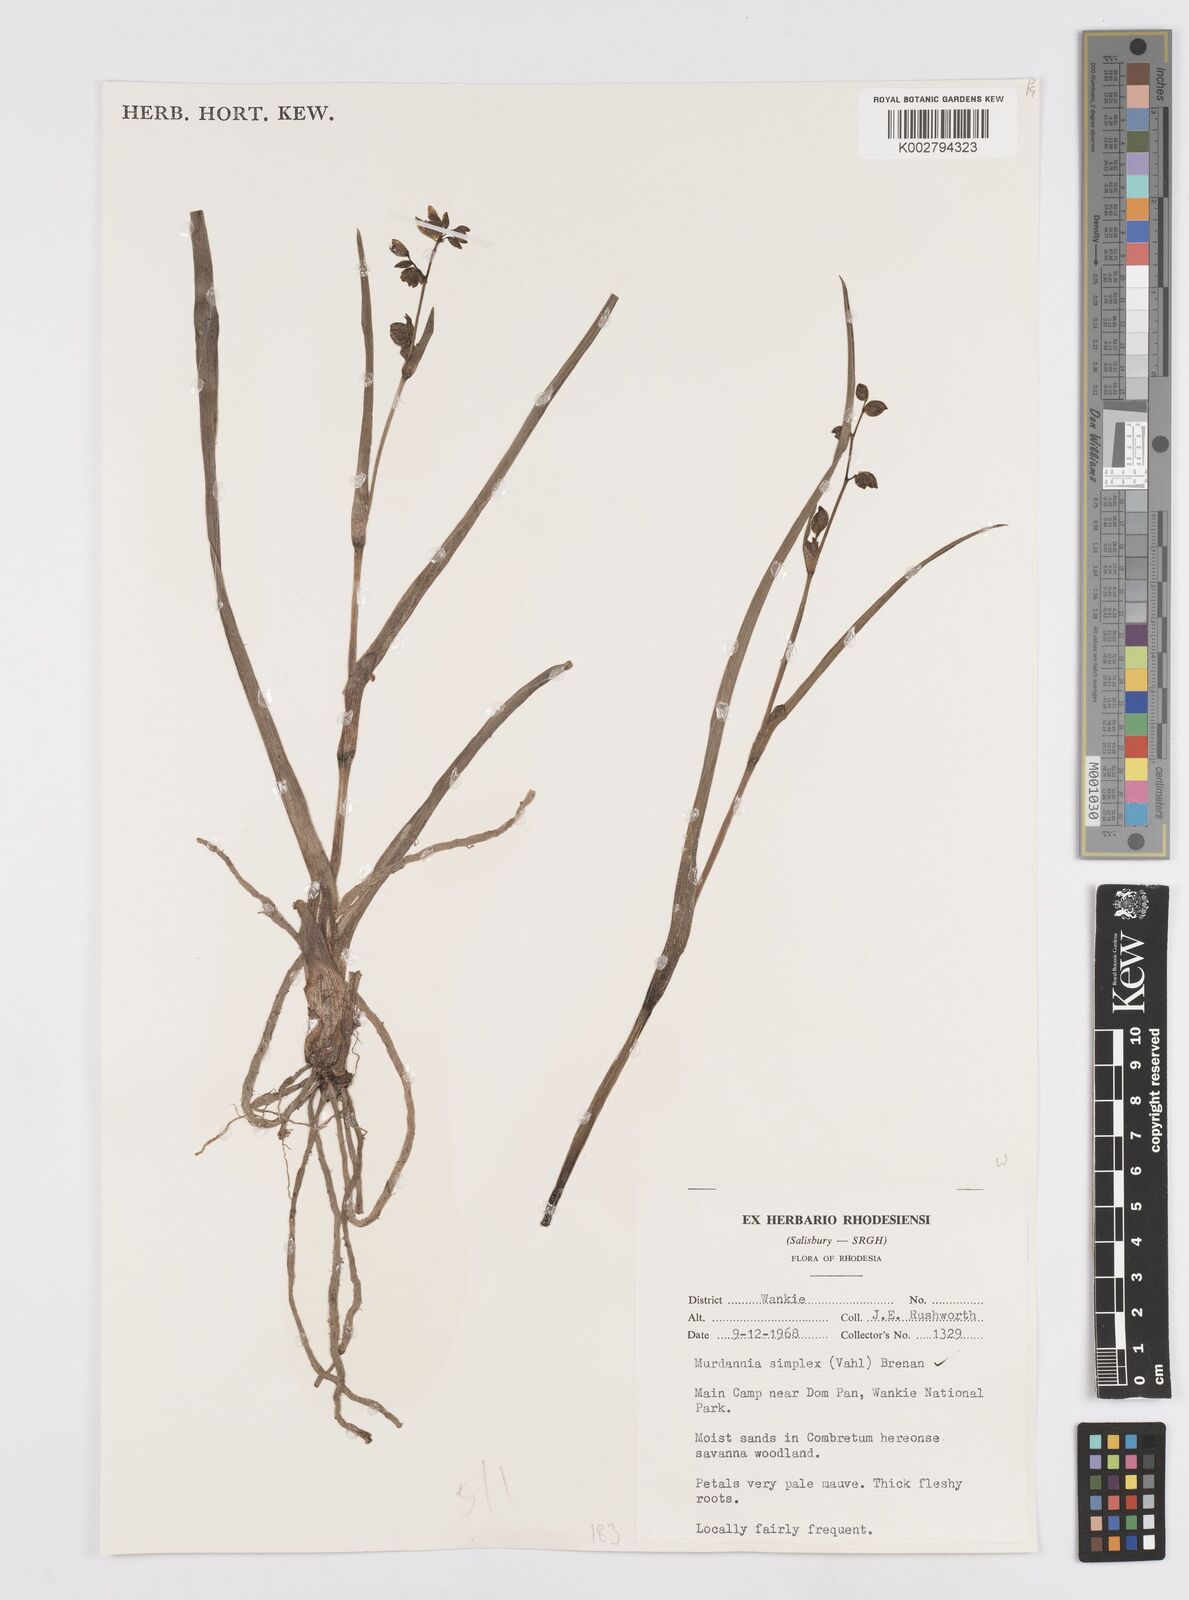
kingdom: Plantae
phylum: Tracheophyta
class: Liliopsida
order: Commelinales
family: Commelinaceae
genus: Murdannia
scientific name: Murdannia simplex
